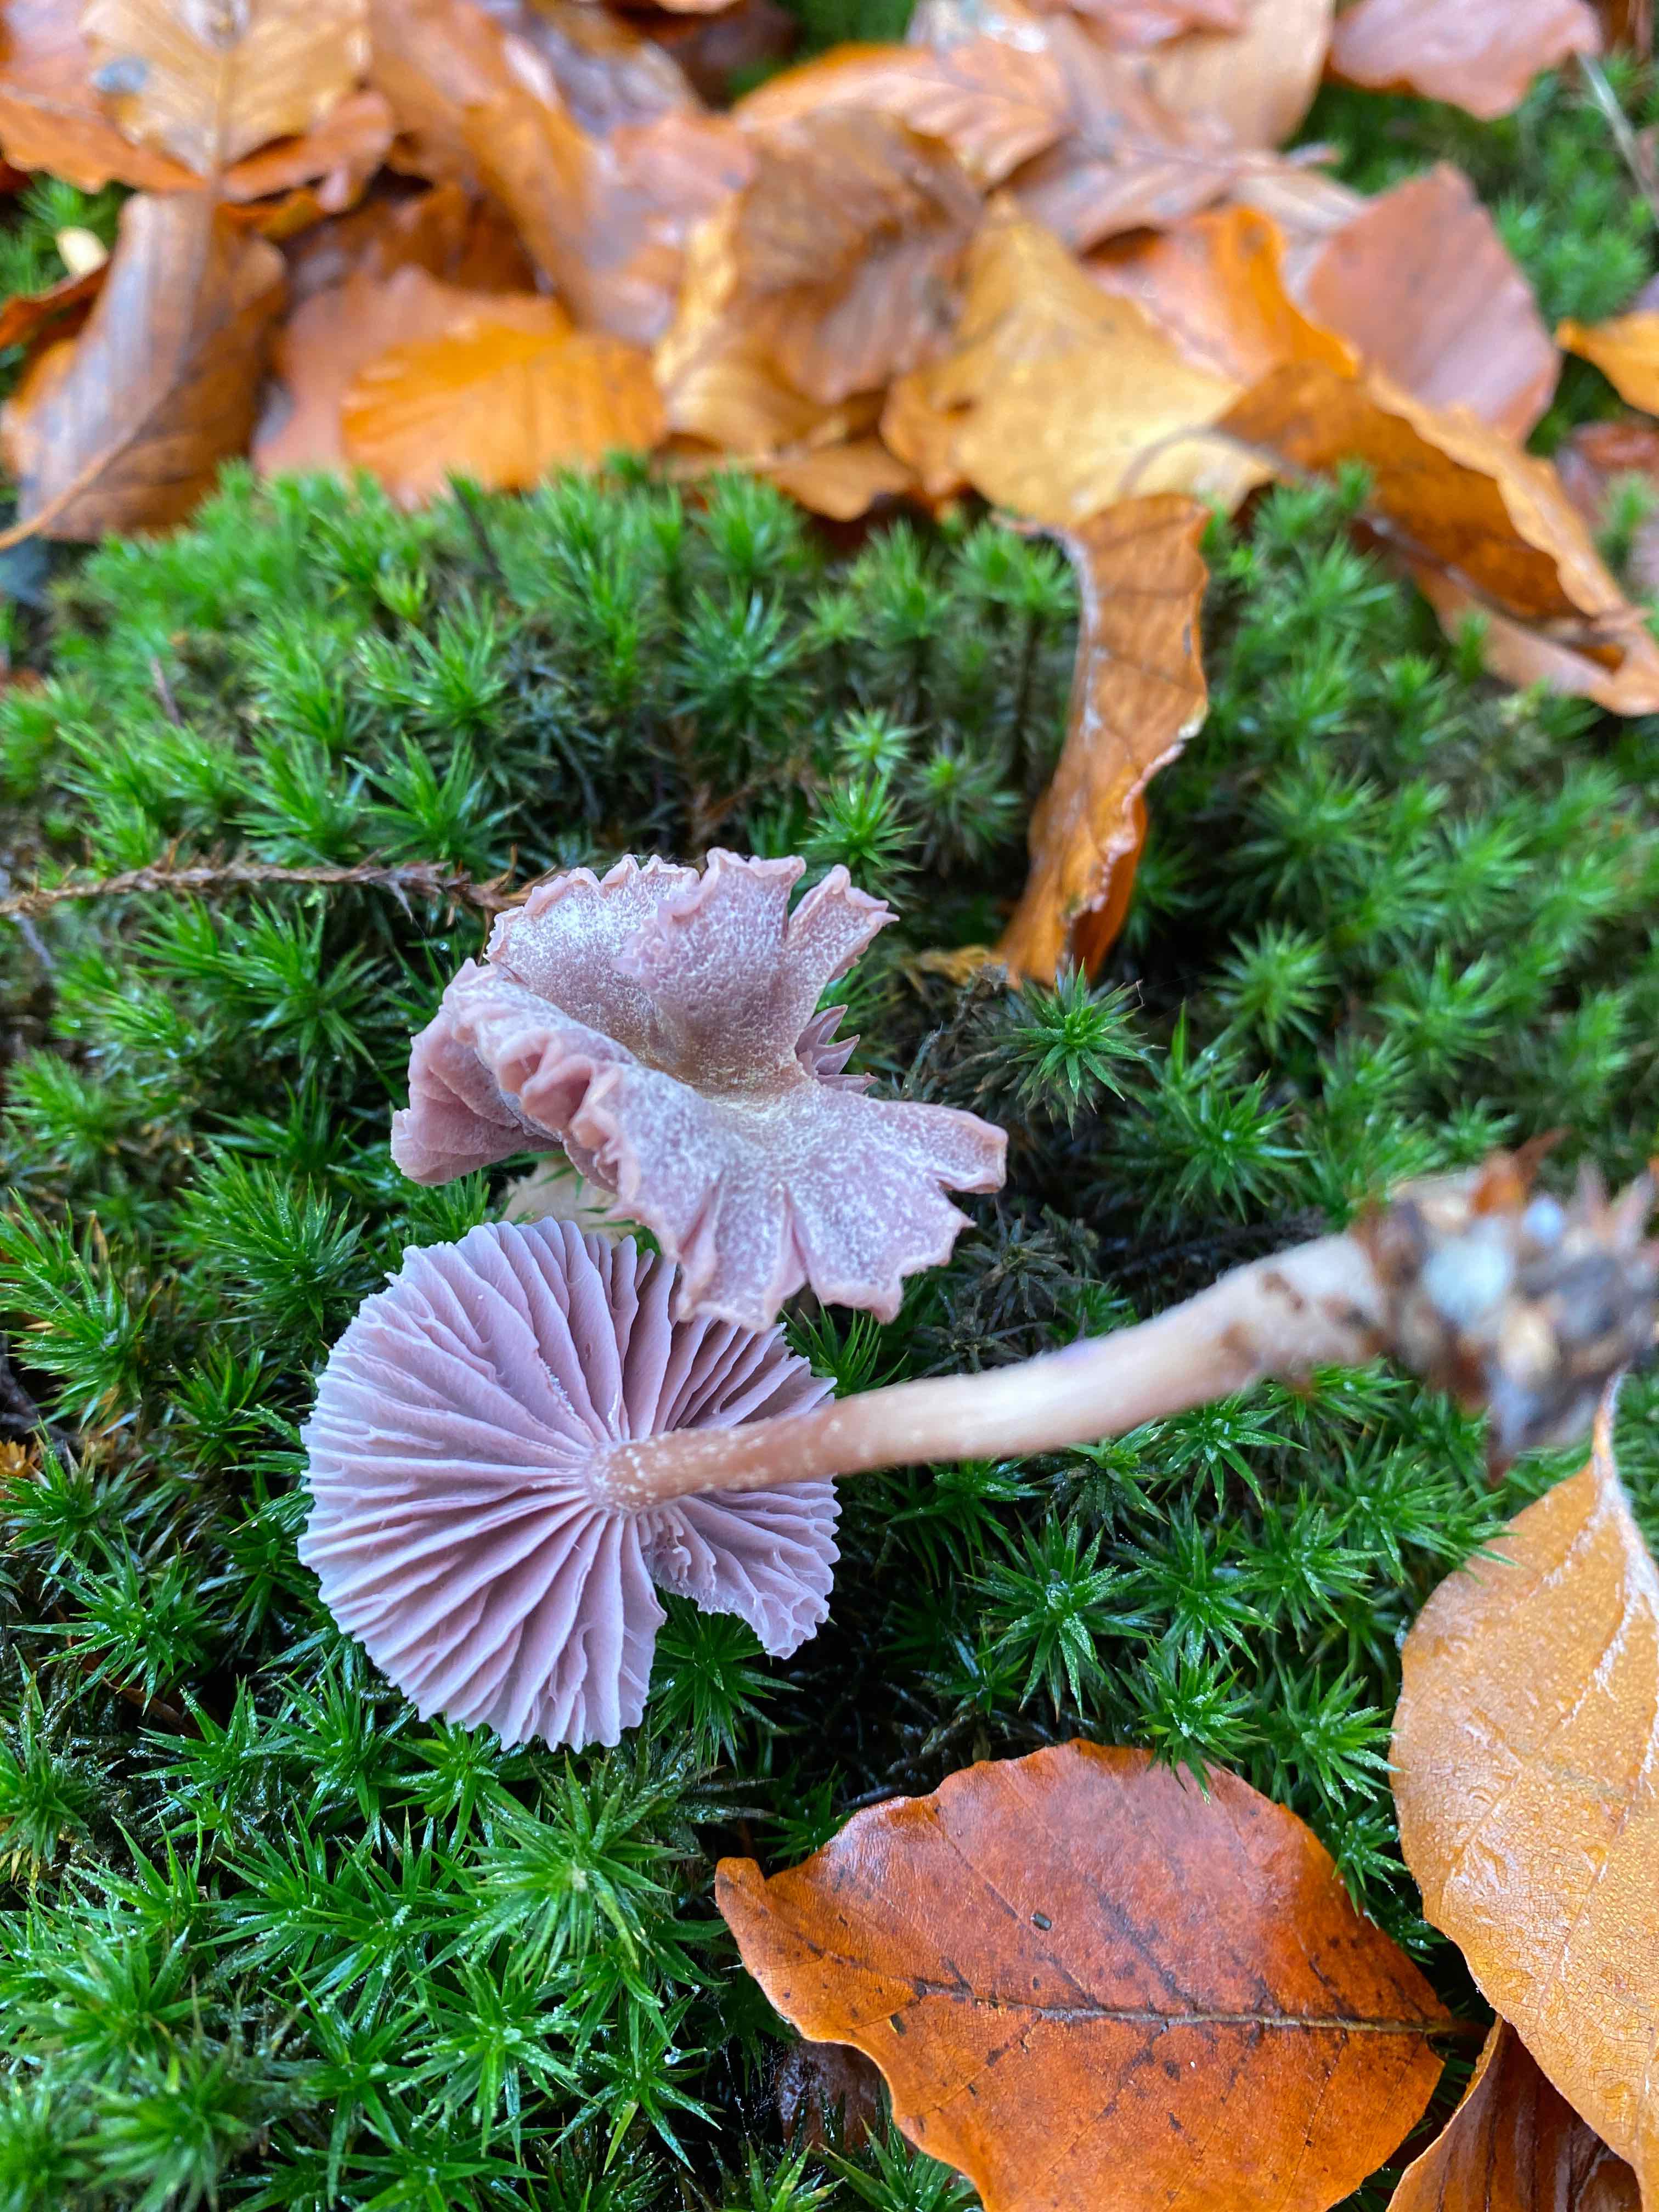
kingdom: Fungi
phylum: Basidiomycota
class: Agaricomycetes
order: Agaricales
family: Hydnangiaceae
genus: Laccaria
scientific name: Laccaria amethystina
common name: violet ametysthat
